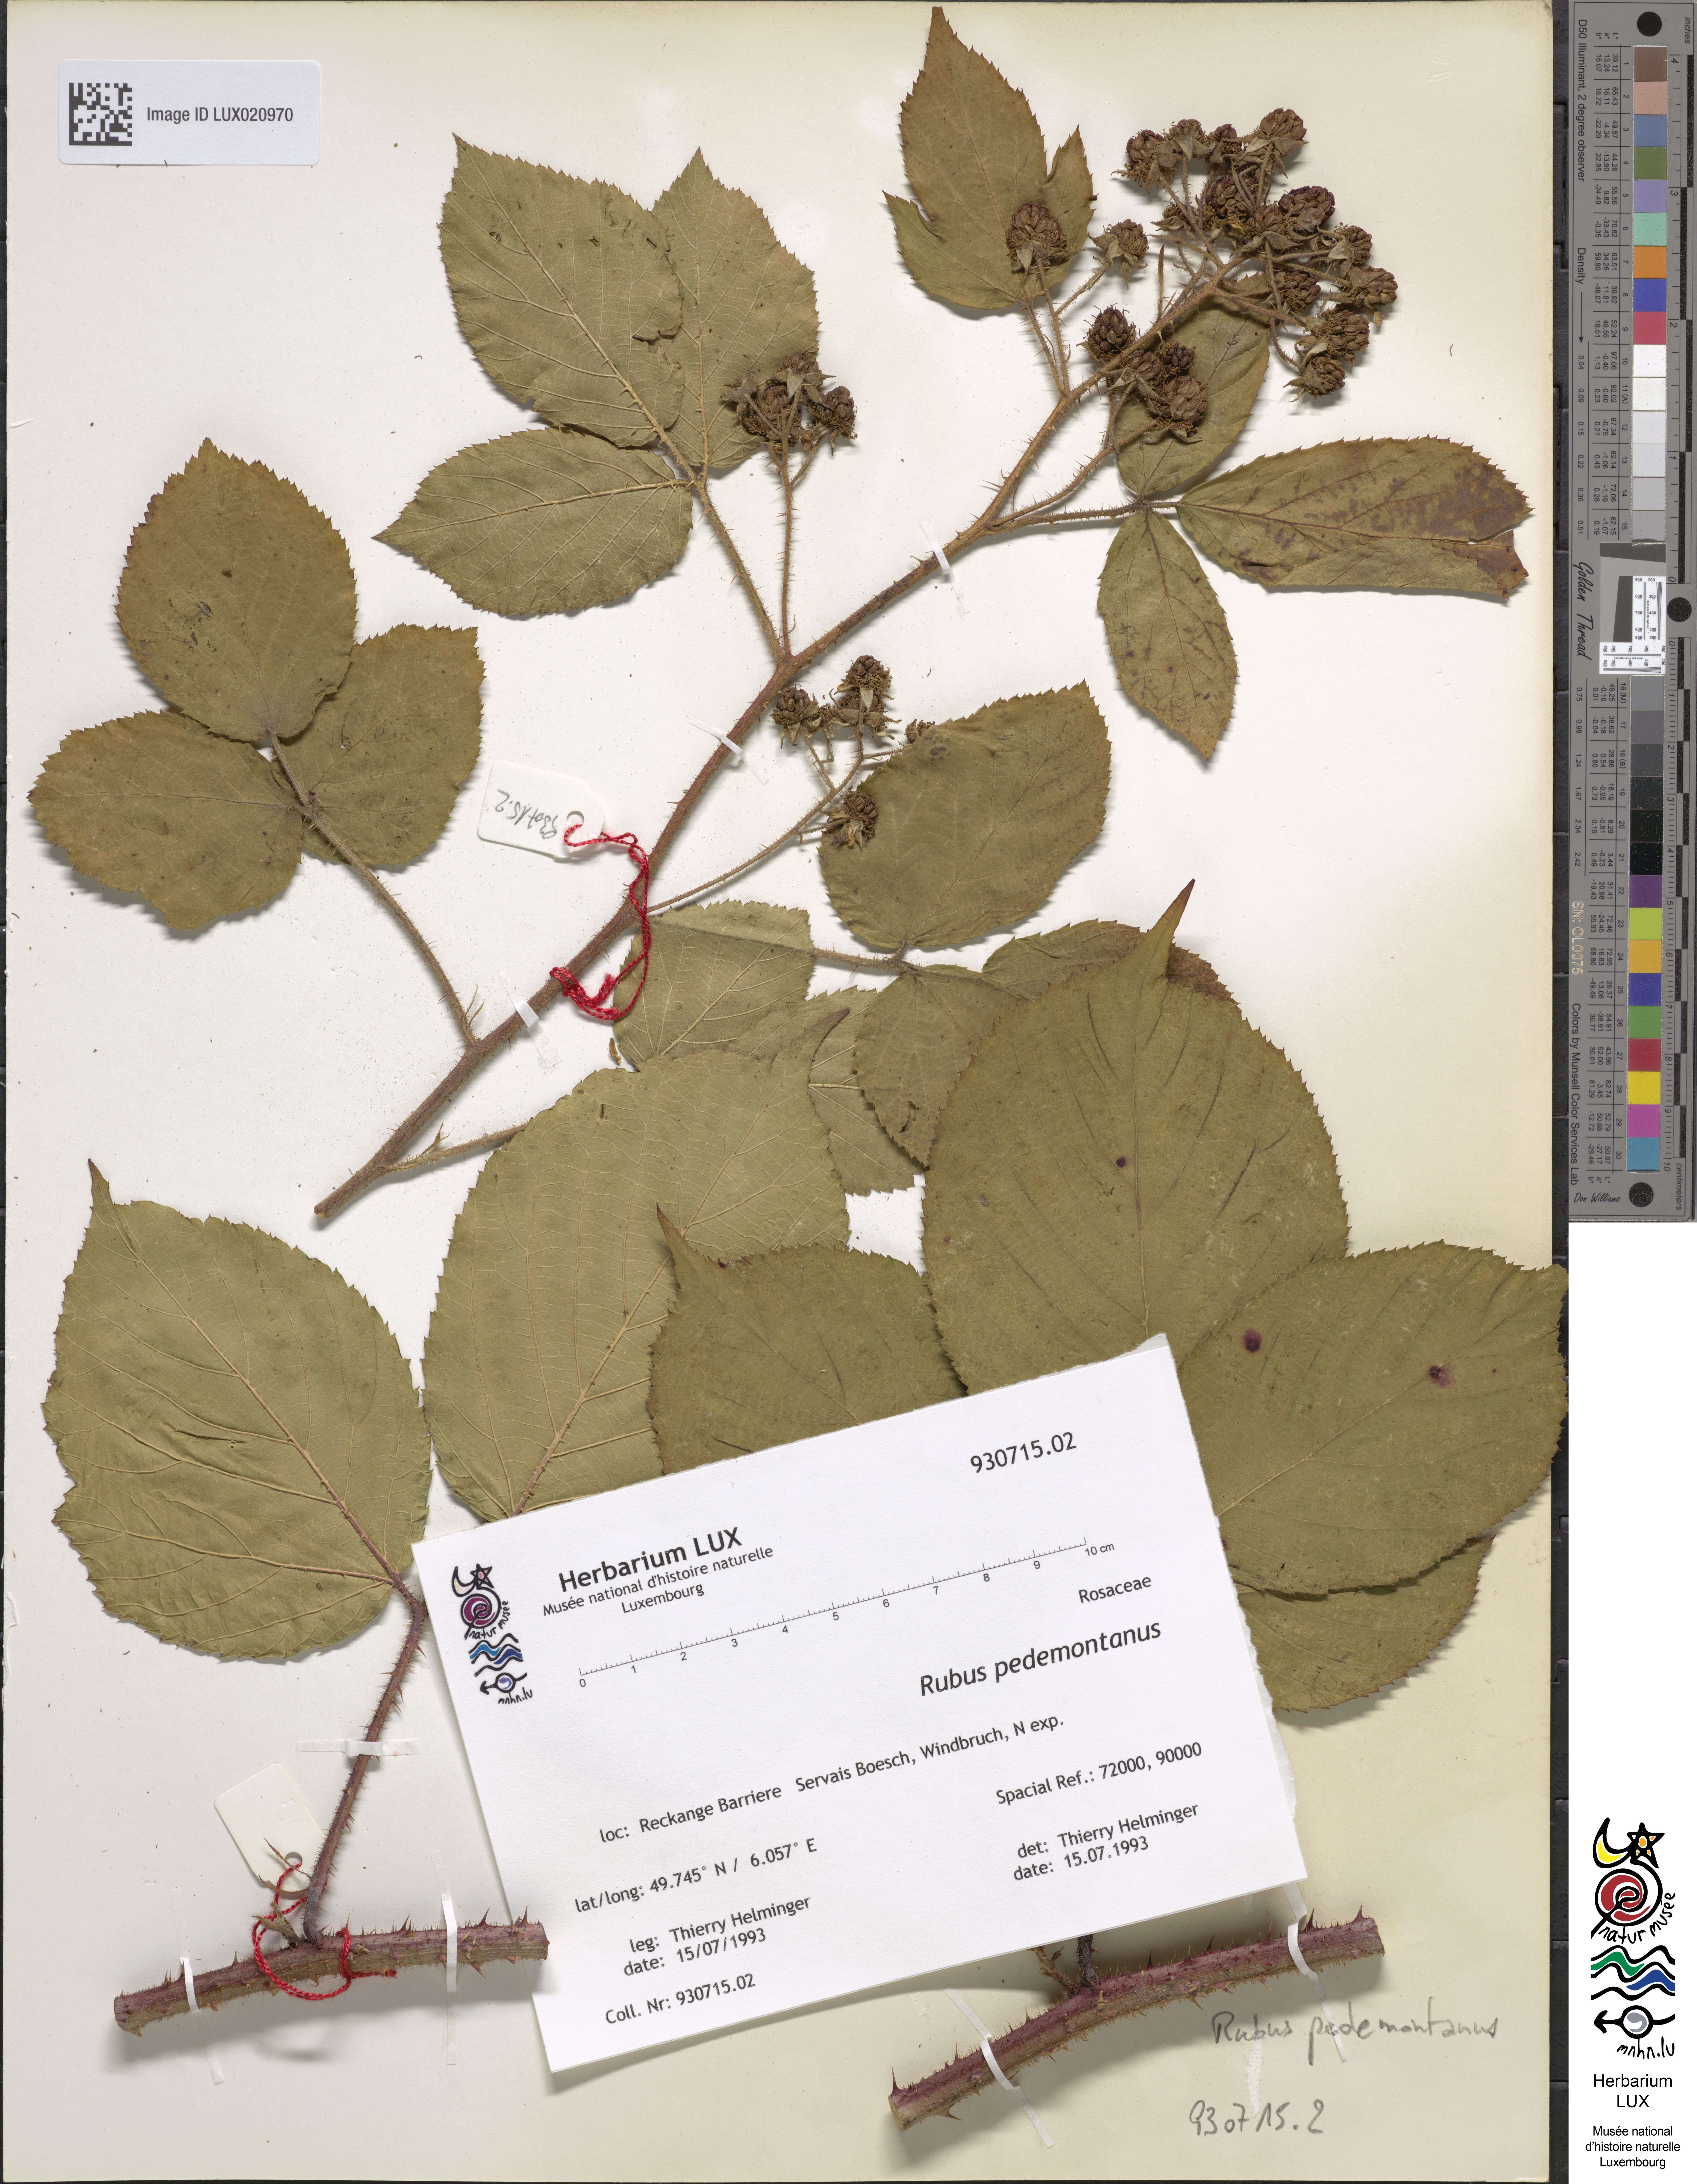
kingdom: Plantae
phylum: Tracheophyta
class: Magnoliopsida
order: Rosales
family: Rosaceae
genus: Rubus
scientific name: Rubus nigricans
